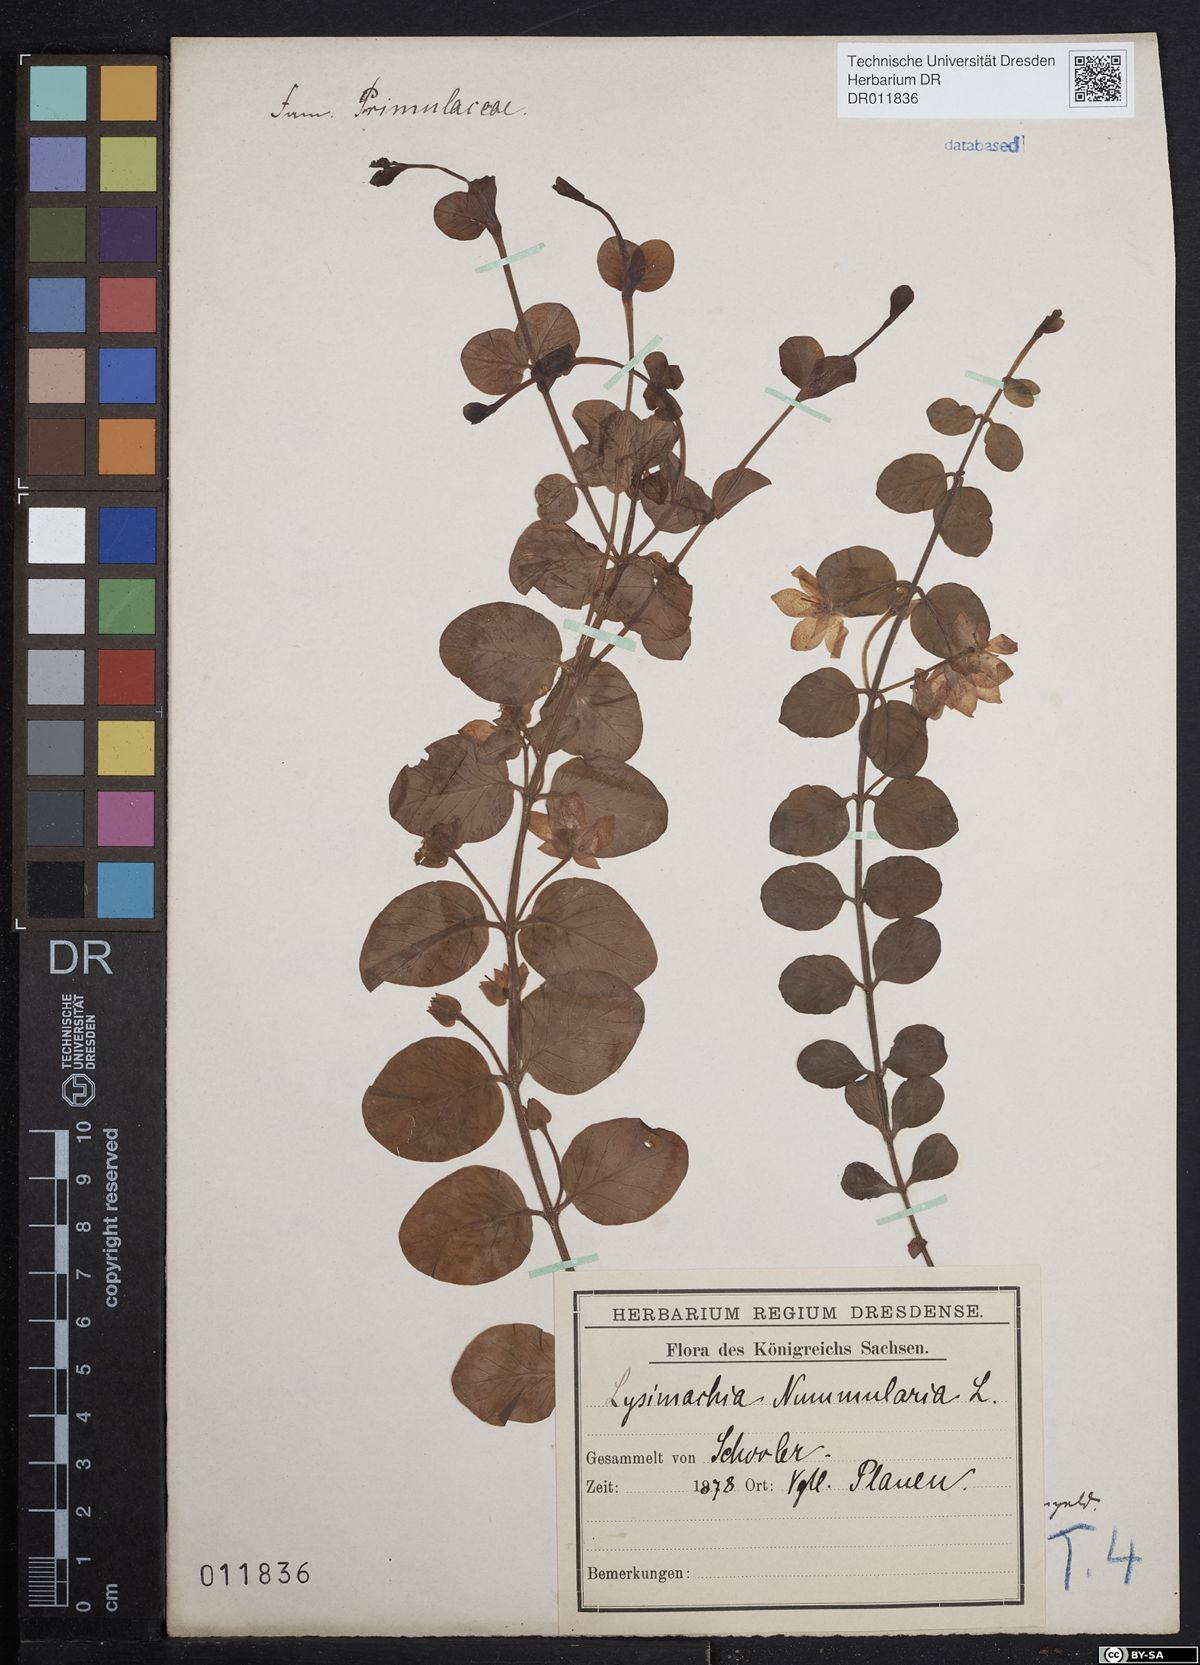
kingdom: Plantae
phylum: Tracheophyta
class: Magnoliopsida
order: Ericales
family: Primulaceae
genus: Lysimachia
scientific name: Lysimachia nummularia
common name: Moneywort
